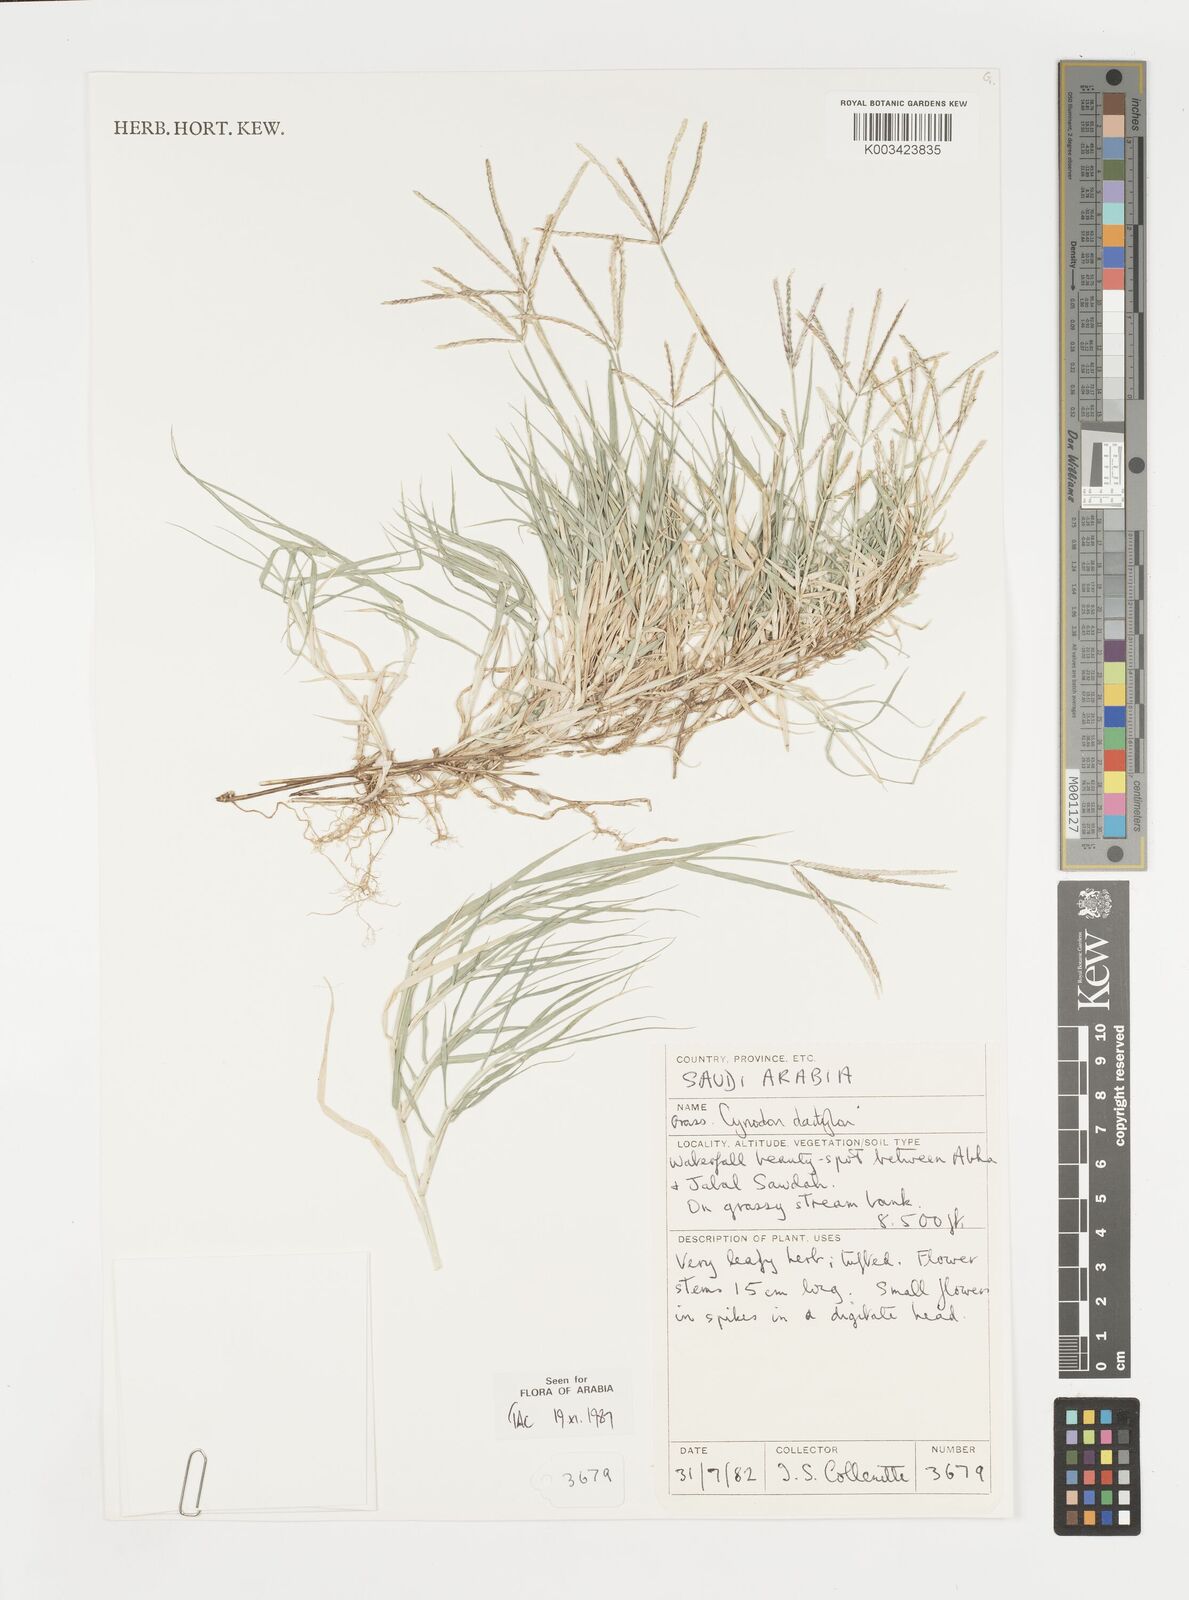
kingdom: Plantae
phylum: Tracheophyta
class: Liliopsida
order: Poales
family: Poaceae
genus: Cynodon
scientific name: Cynodon dactylon
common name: Bermuda grass
